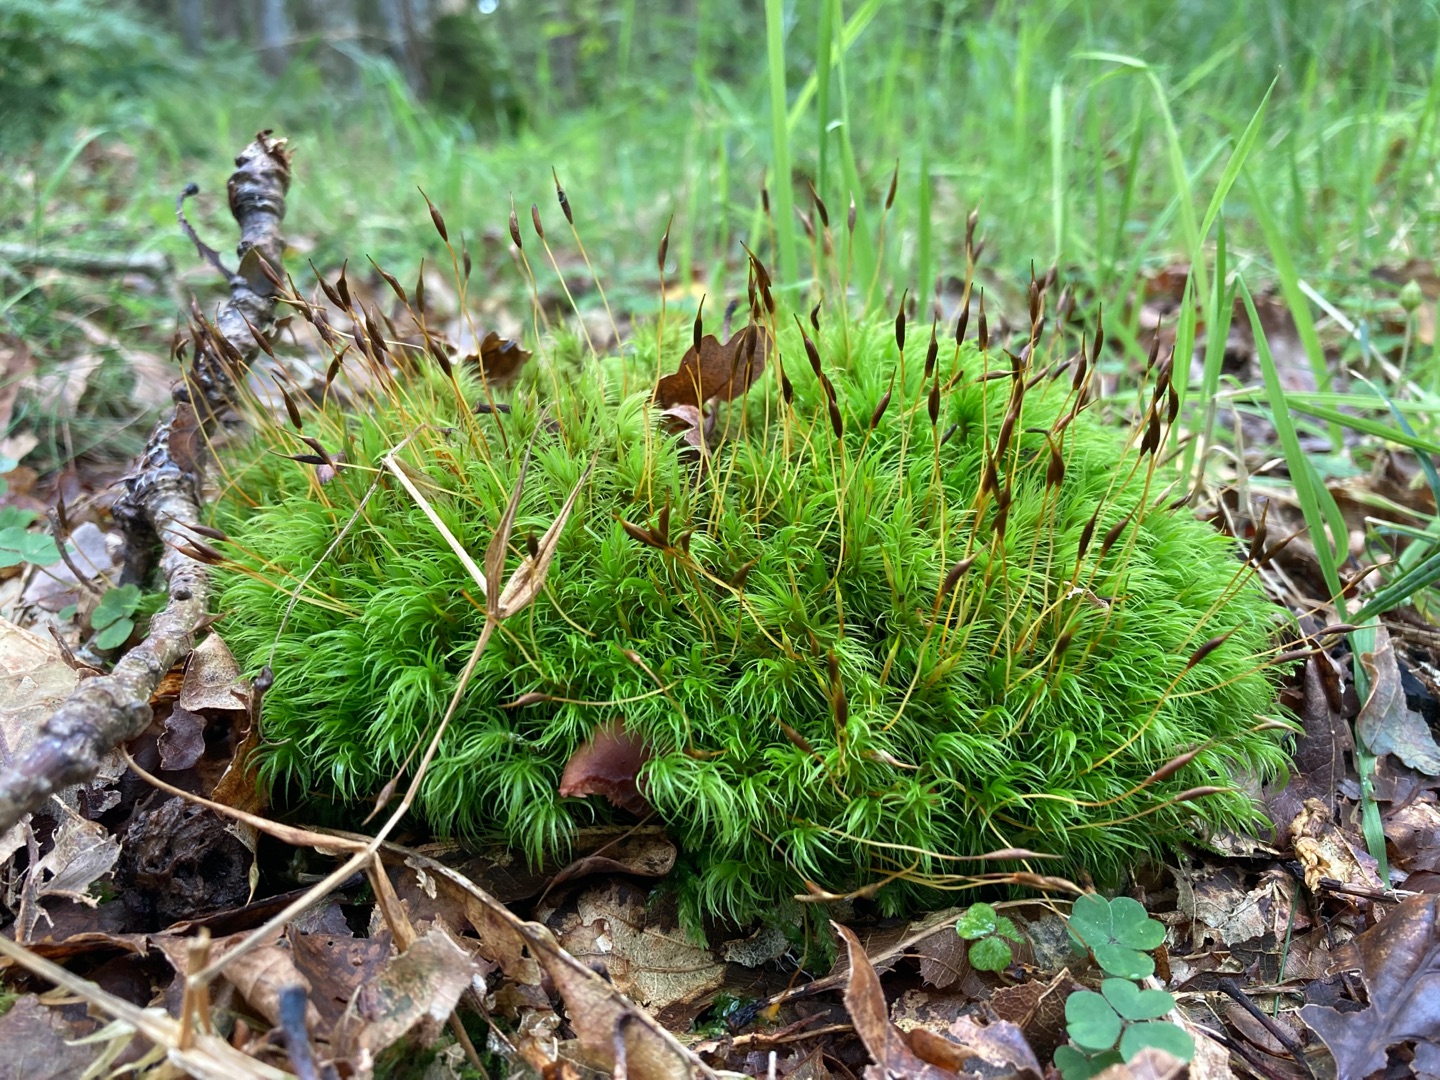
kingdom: Plantae
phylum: Bryophyta
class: Bryopsida
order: Dicranales
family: Dicranaceae
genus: Dicranum
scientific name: Dicranum scoparium
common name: Almindelig kløvtand
